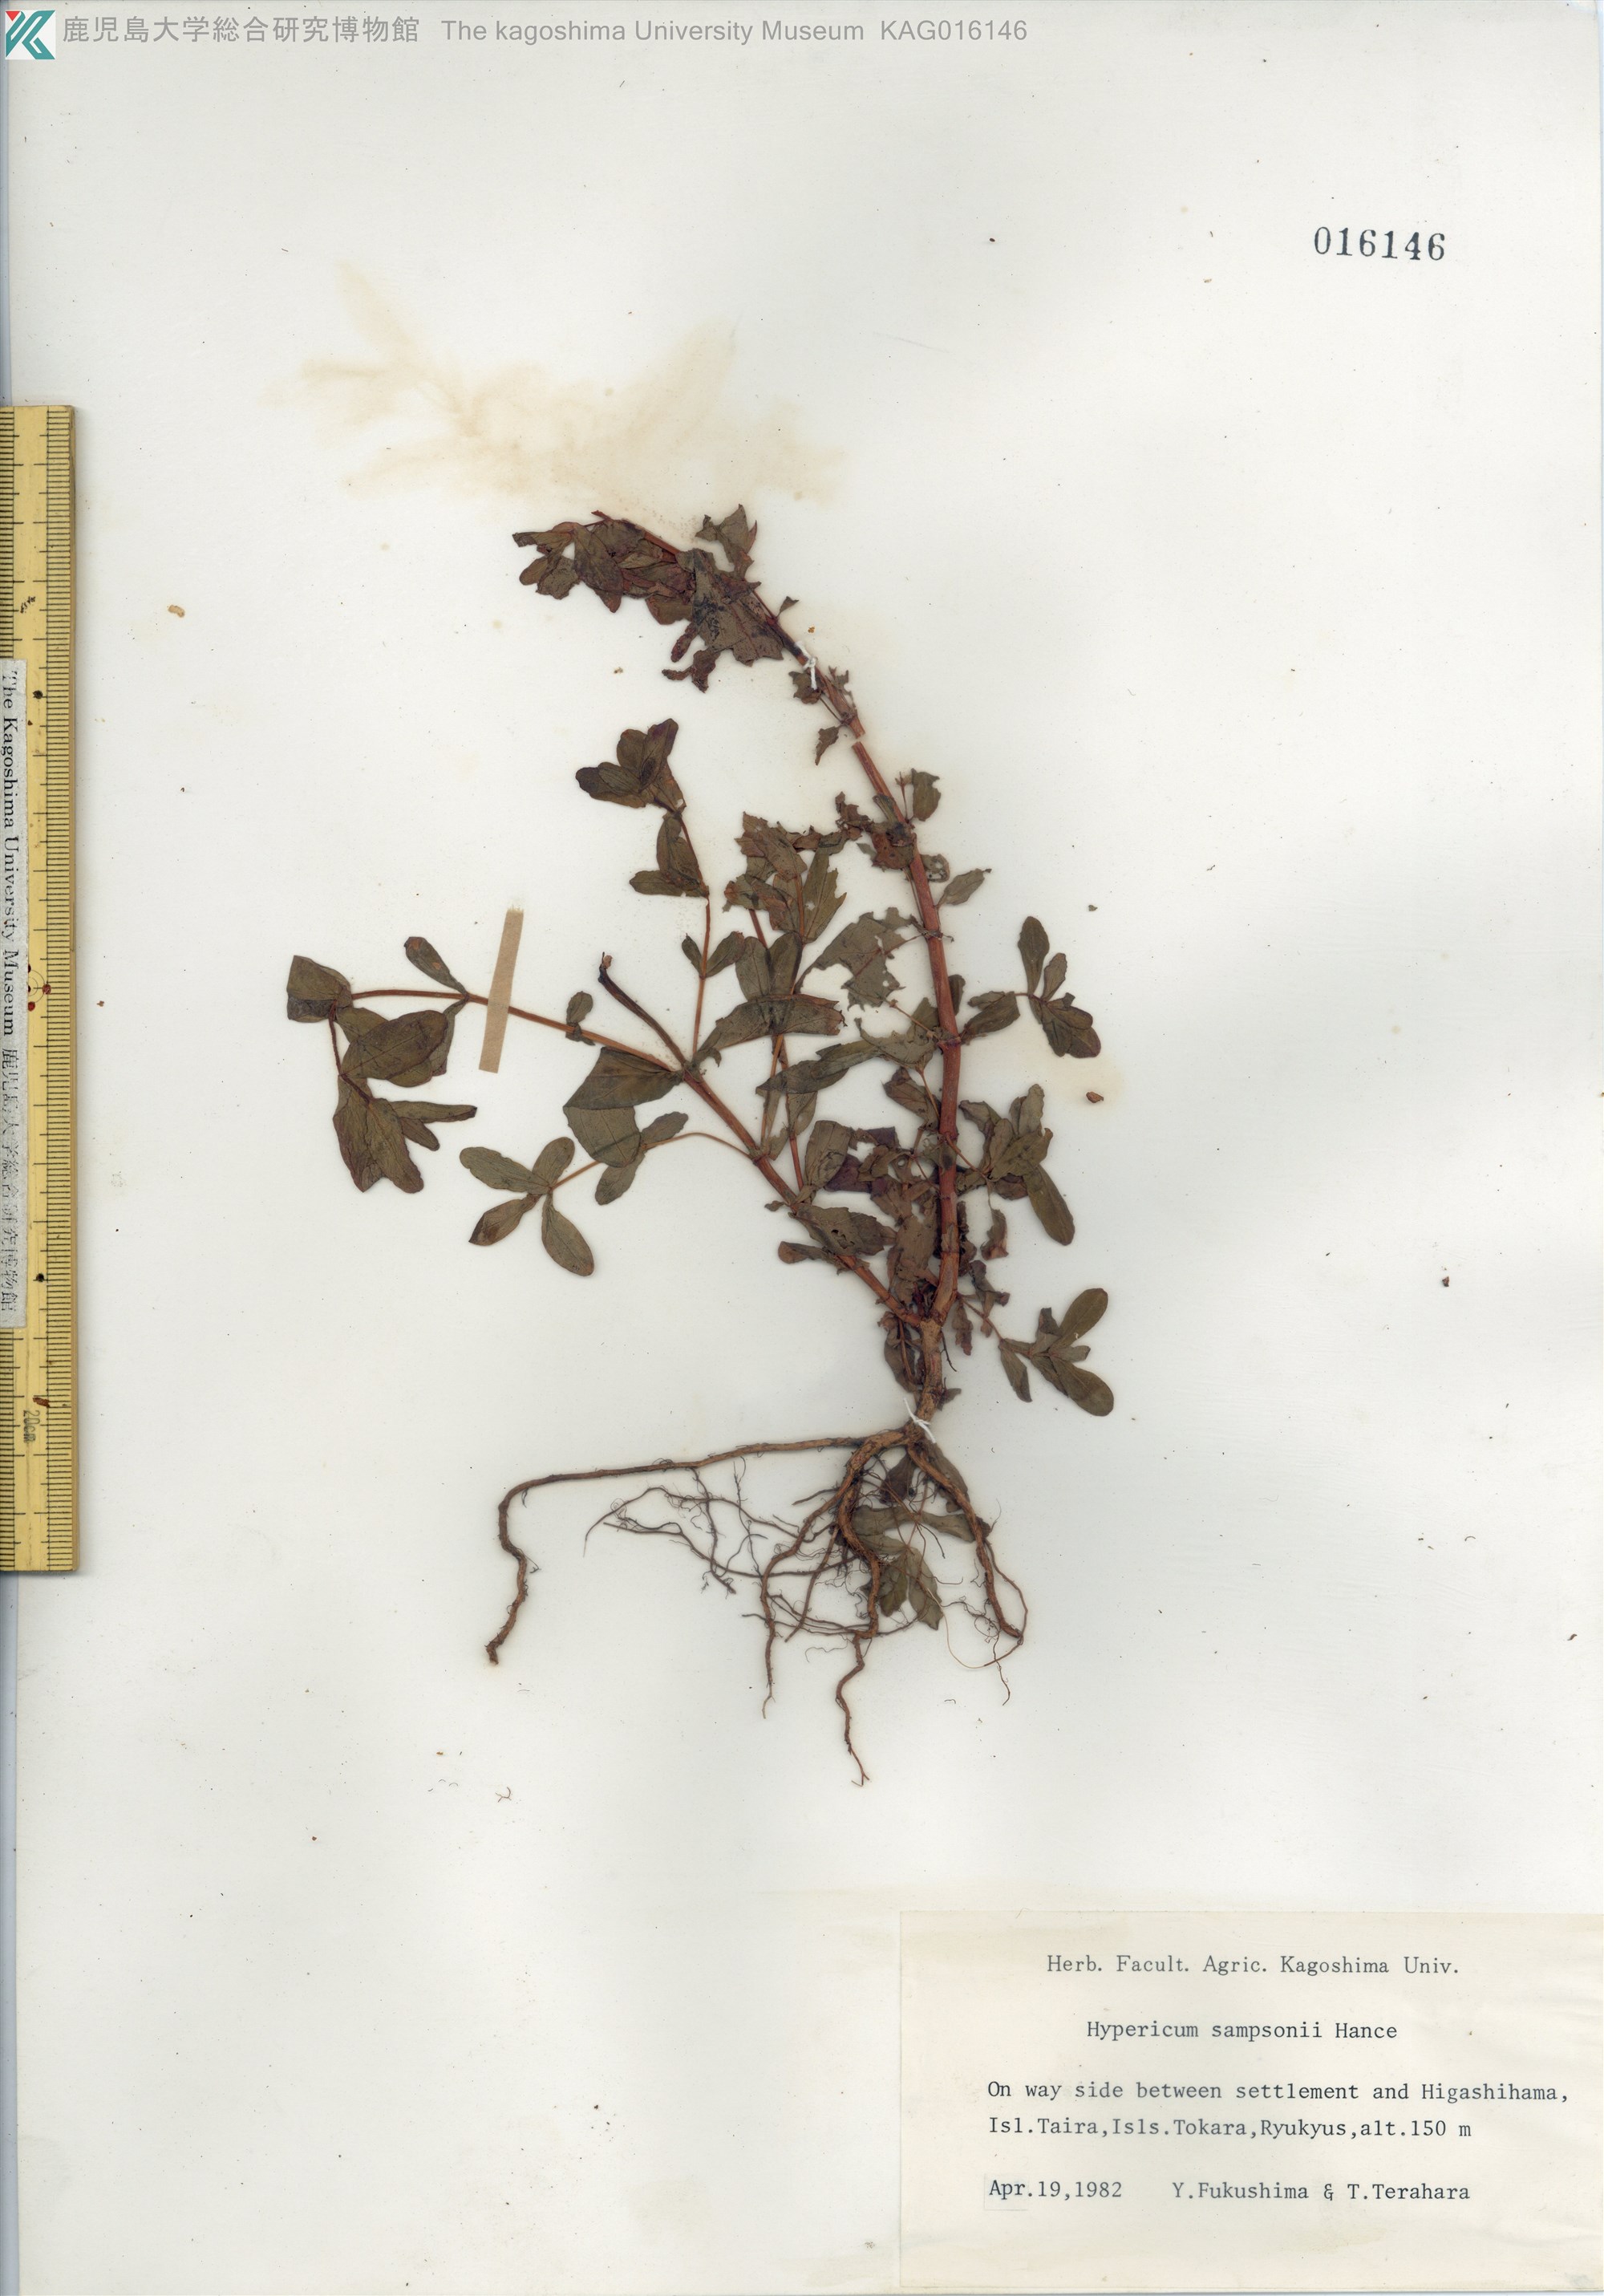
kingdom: Plantae
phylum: Tracheophyta
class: Magnoliopsida
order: Malpighiales
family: Hypericaceae
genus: Hypericum
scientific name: Hypericum sampsonii
